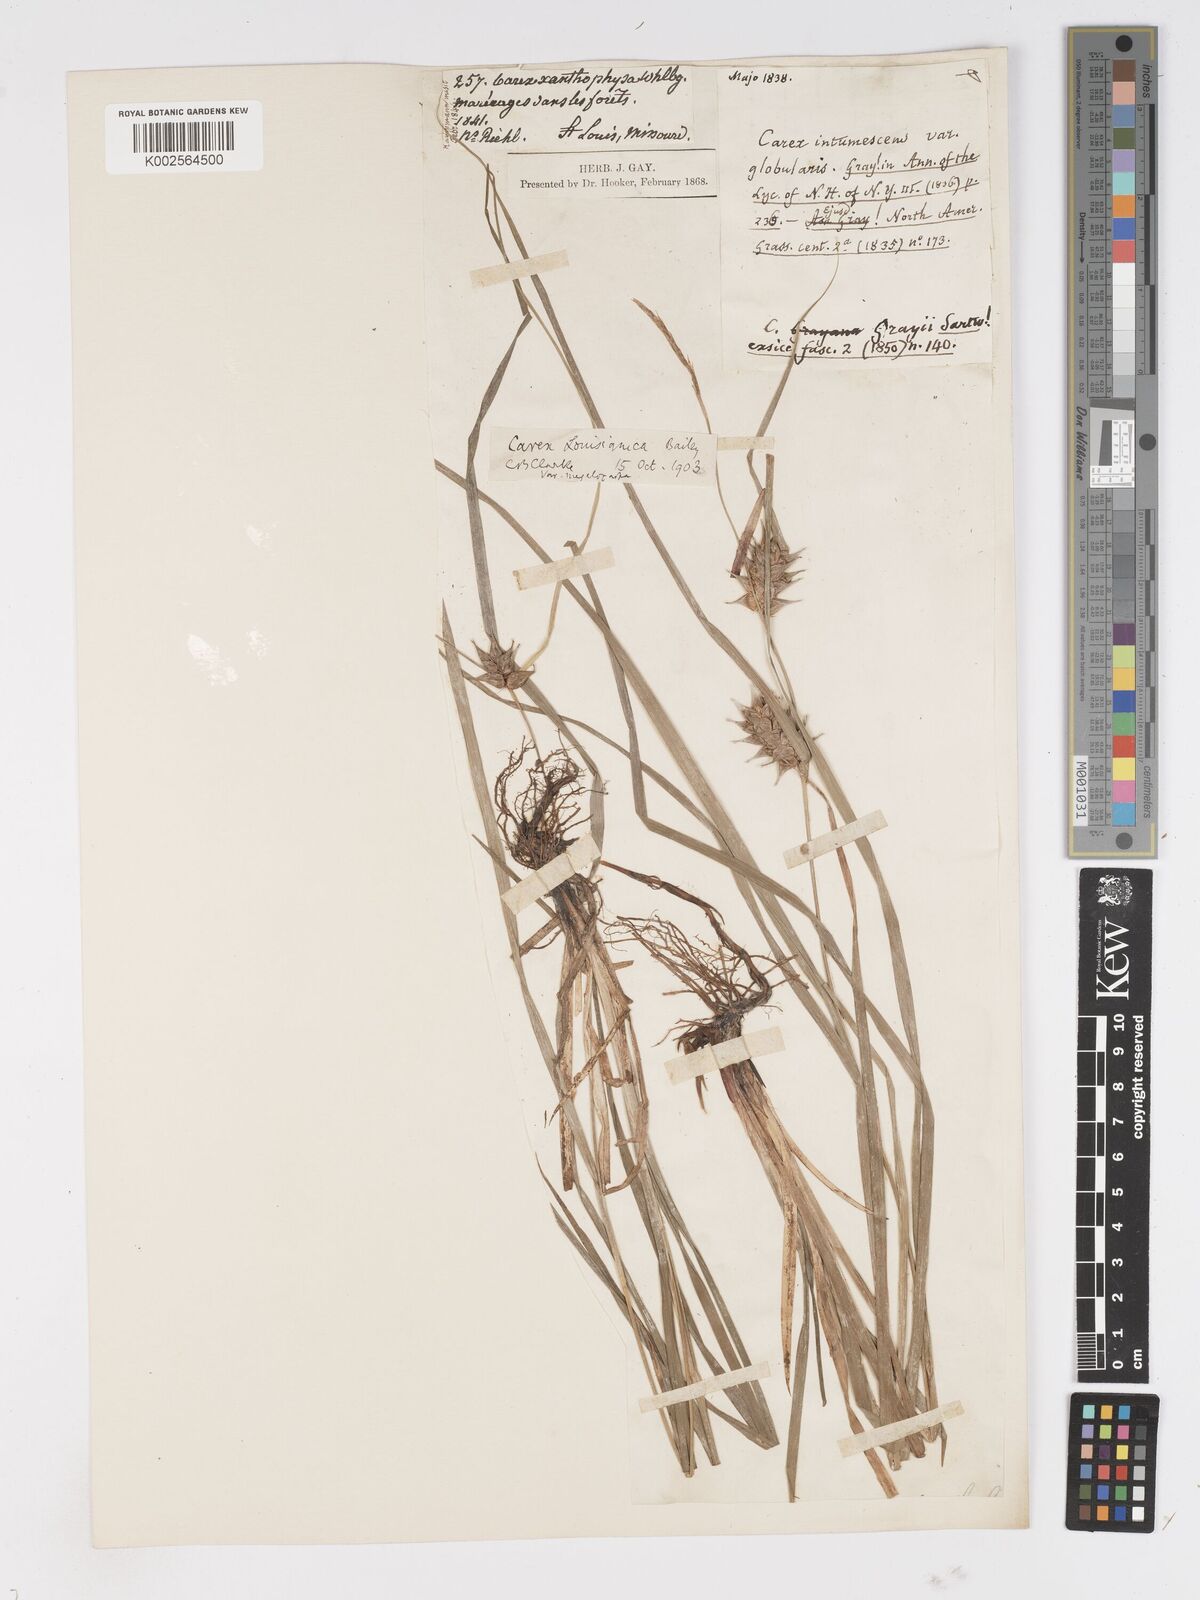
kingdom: Plantae
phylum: Tracheophyta
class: Liliopsida
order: Poales
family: Cyperaceae
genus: Carex
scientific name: Carex louisianica
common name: Louisiana sedge
